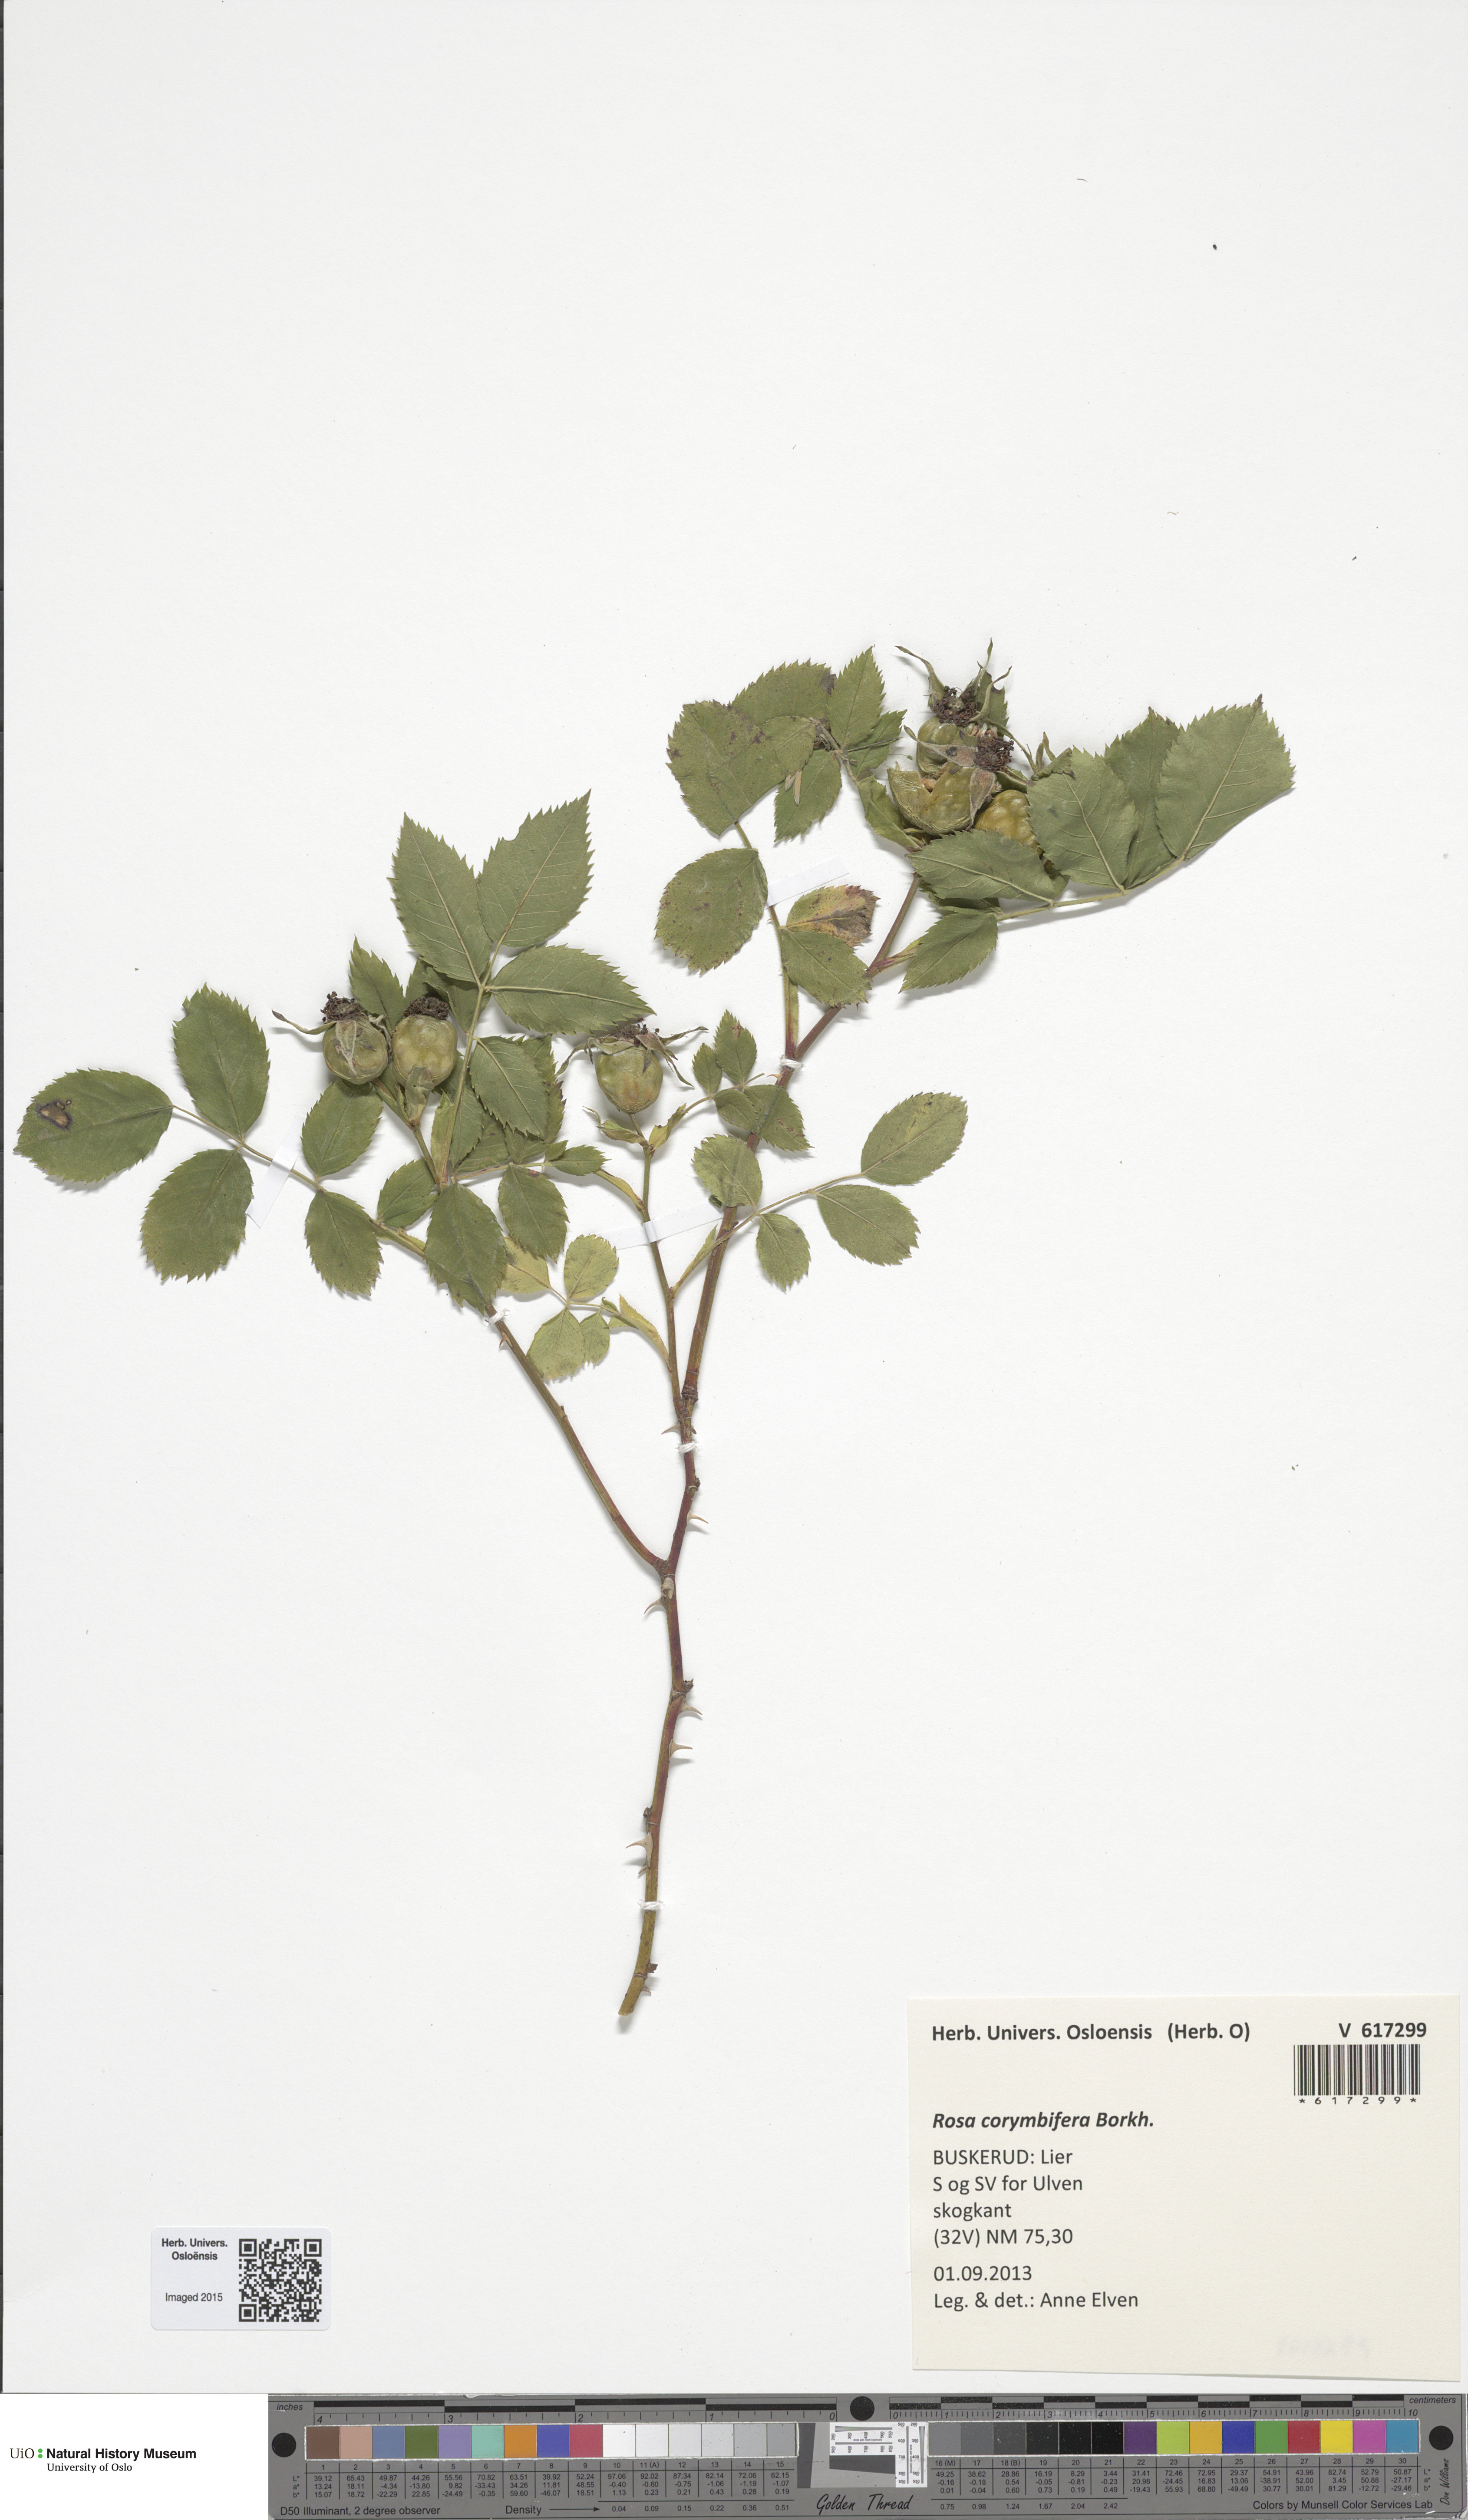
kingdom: Plantae
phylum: Tracheophyta
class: Magnoliopsida
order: Rosales
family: Rosaceae
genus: Rosa
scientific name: Rosa corymbifera
